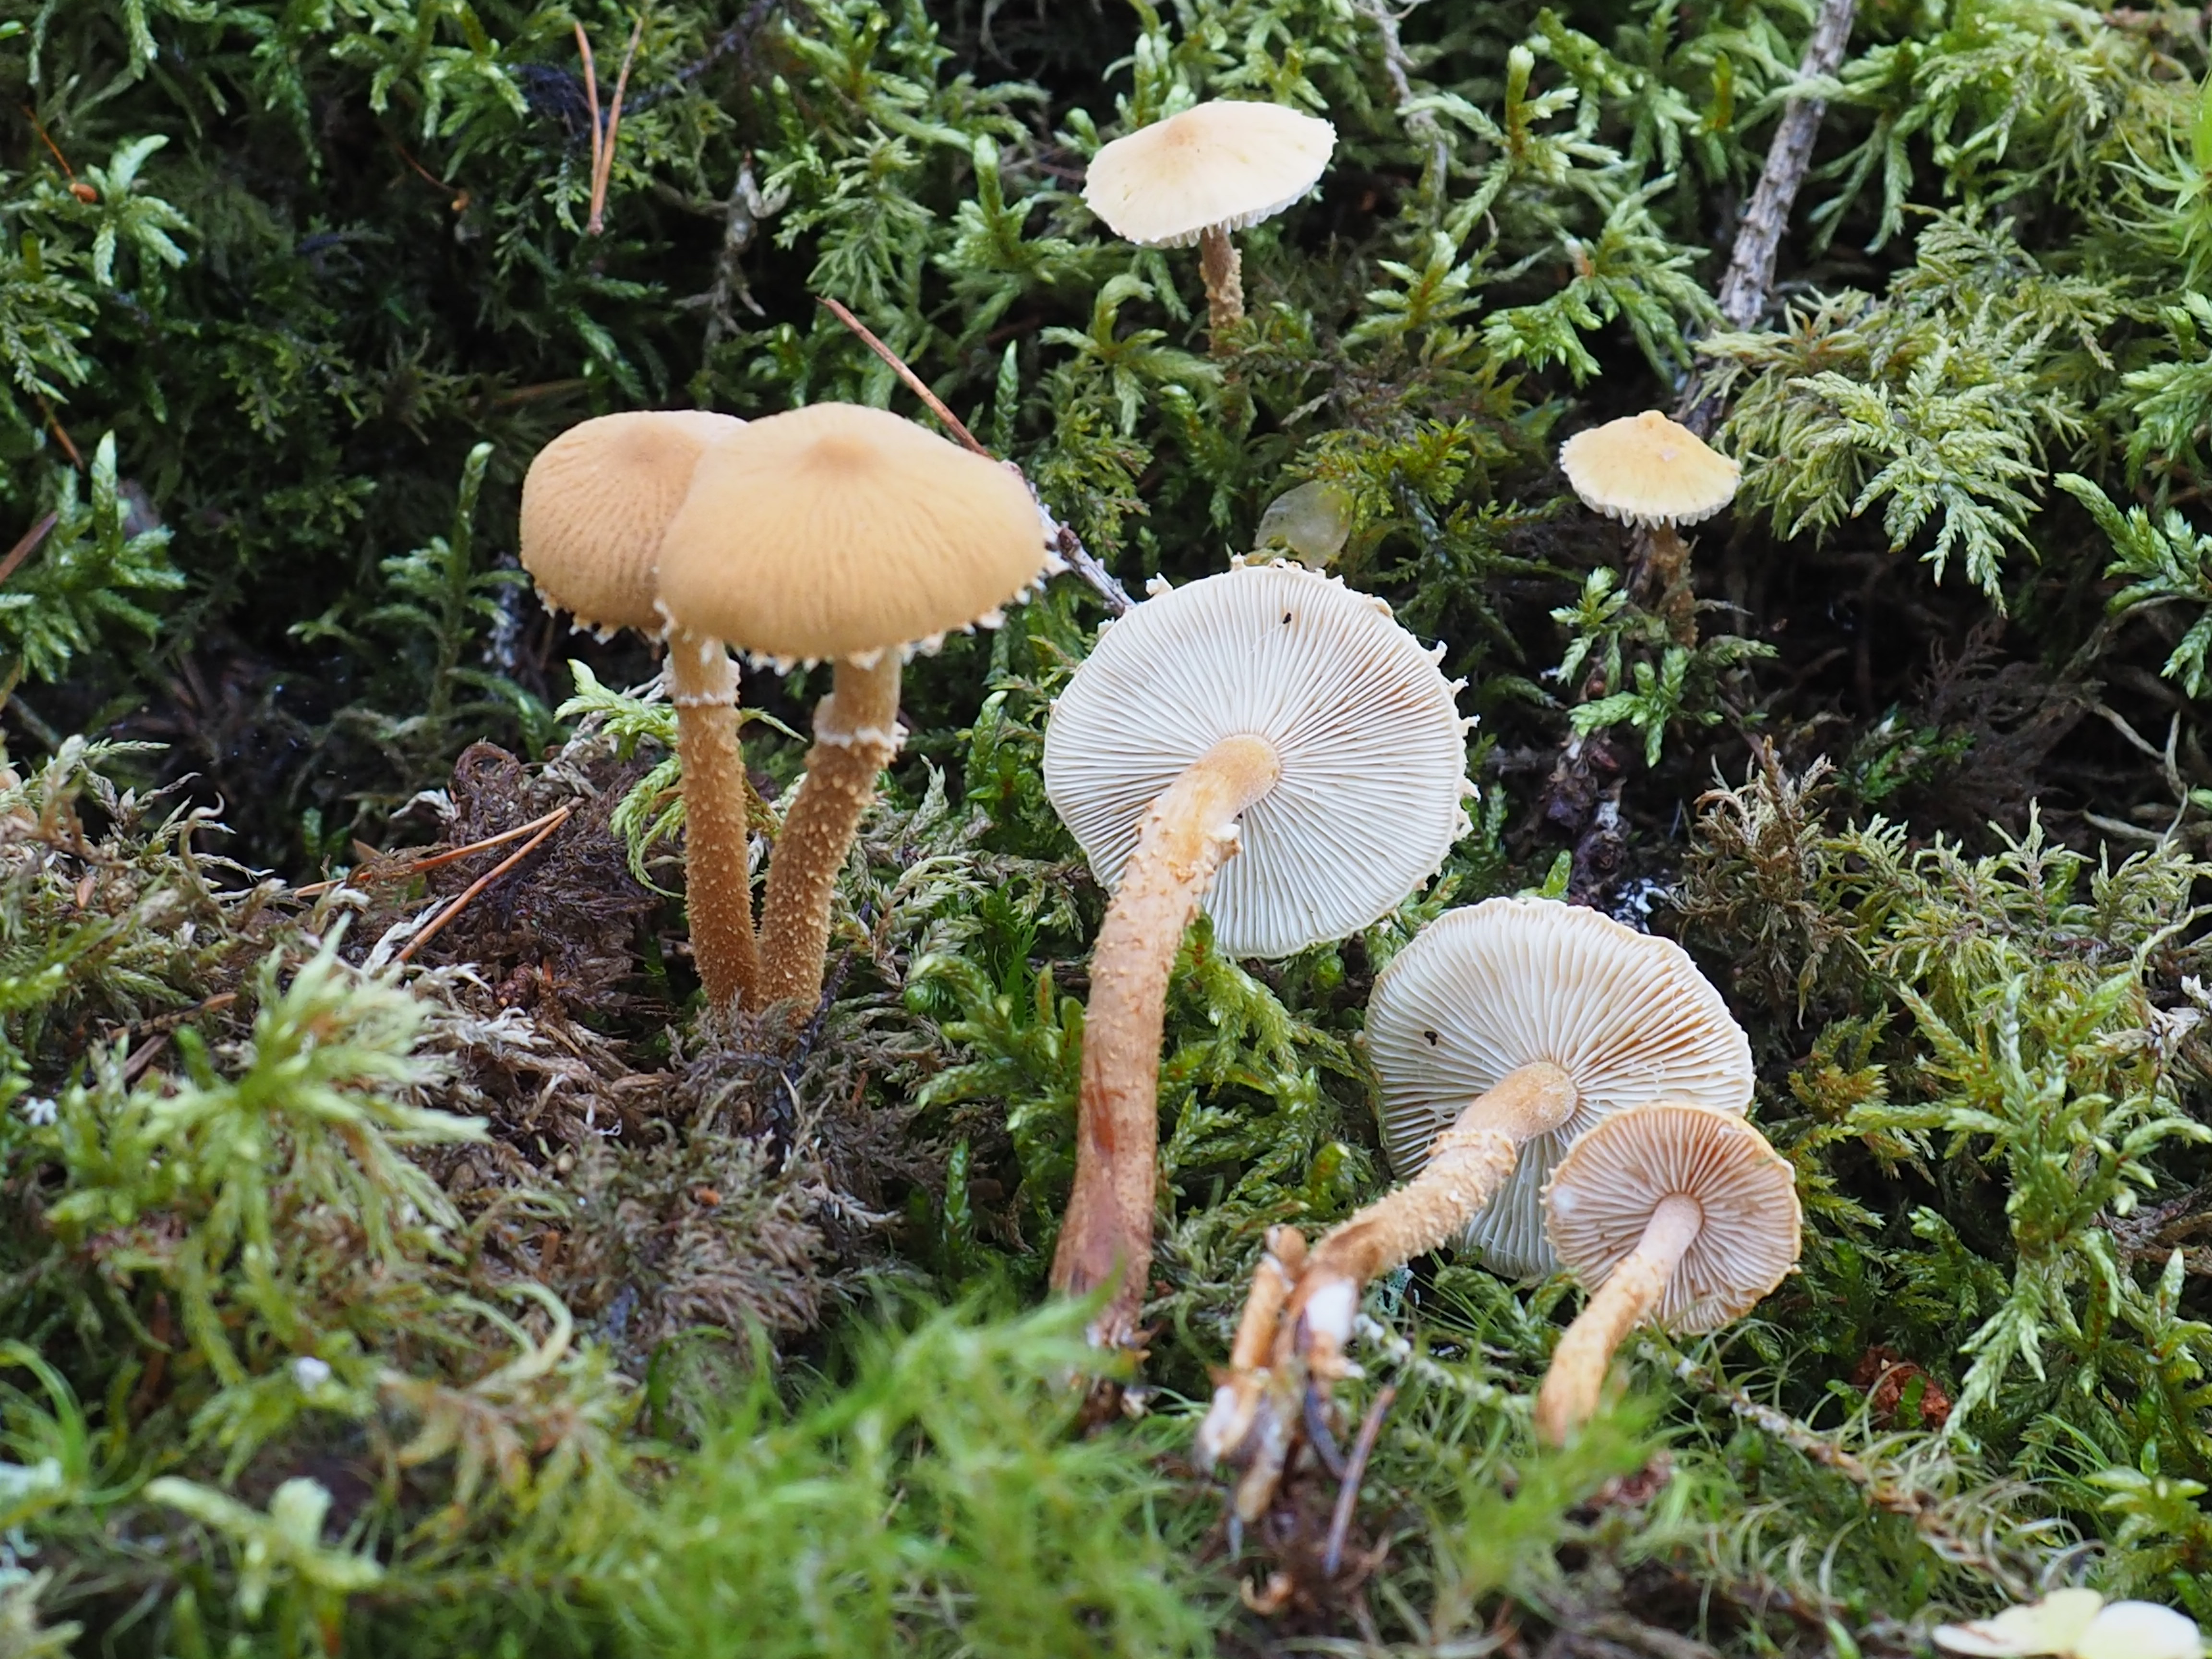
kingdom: Fungi
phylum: Basidiomycota
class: Agaricomycetes
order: Agaricales
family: Tricholomataceae
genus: Cystoderma
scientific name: Cystoderma amianthinum
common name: Earthy powdercap
